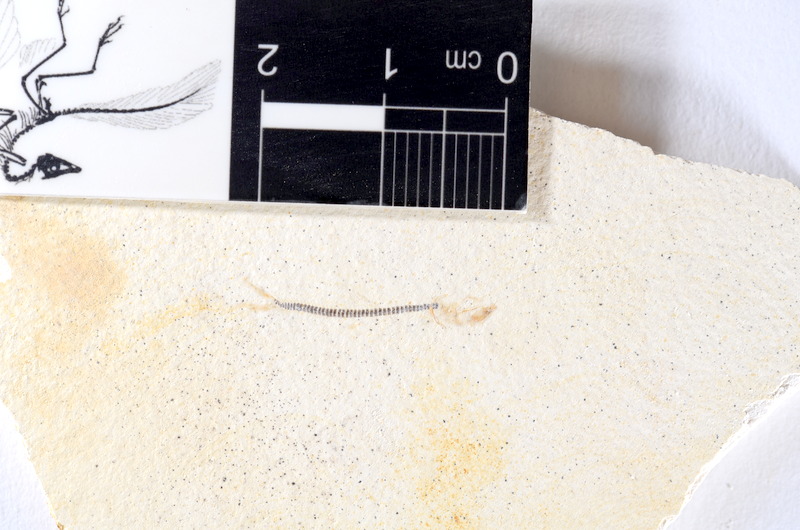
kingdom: Animalia
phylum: Chordata
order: Salmoniformes
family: Orthogonikleithridae
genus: Orthogonikleithrus
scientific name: Orthogonikleithrus hoelli
